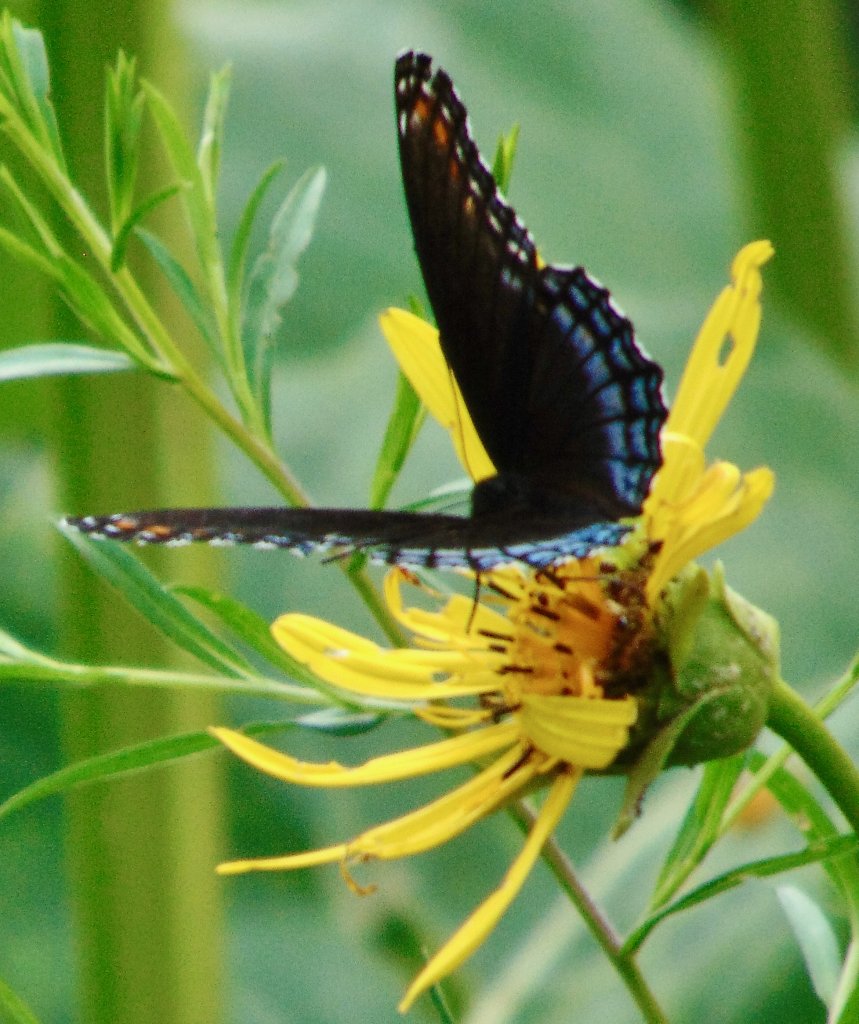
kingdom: Animalia
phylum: Arthropoda
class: Insecta
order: Lepidoptera
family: Nymphalidae
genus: Limenitis
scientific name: Limenitis astyanax
